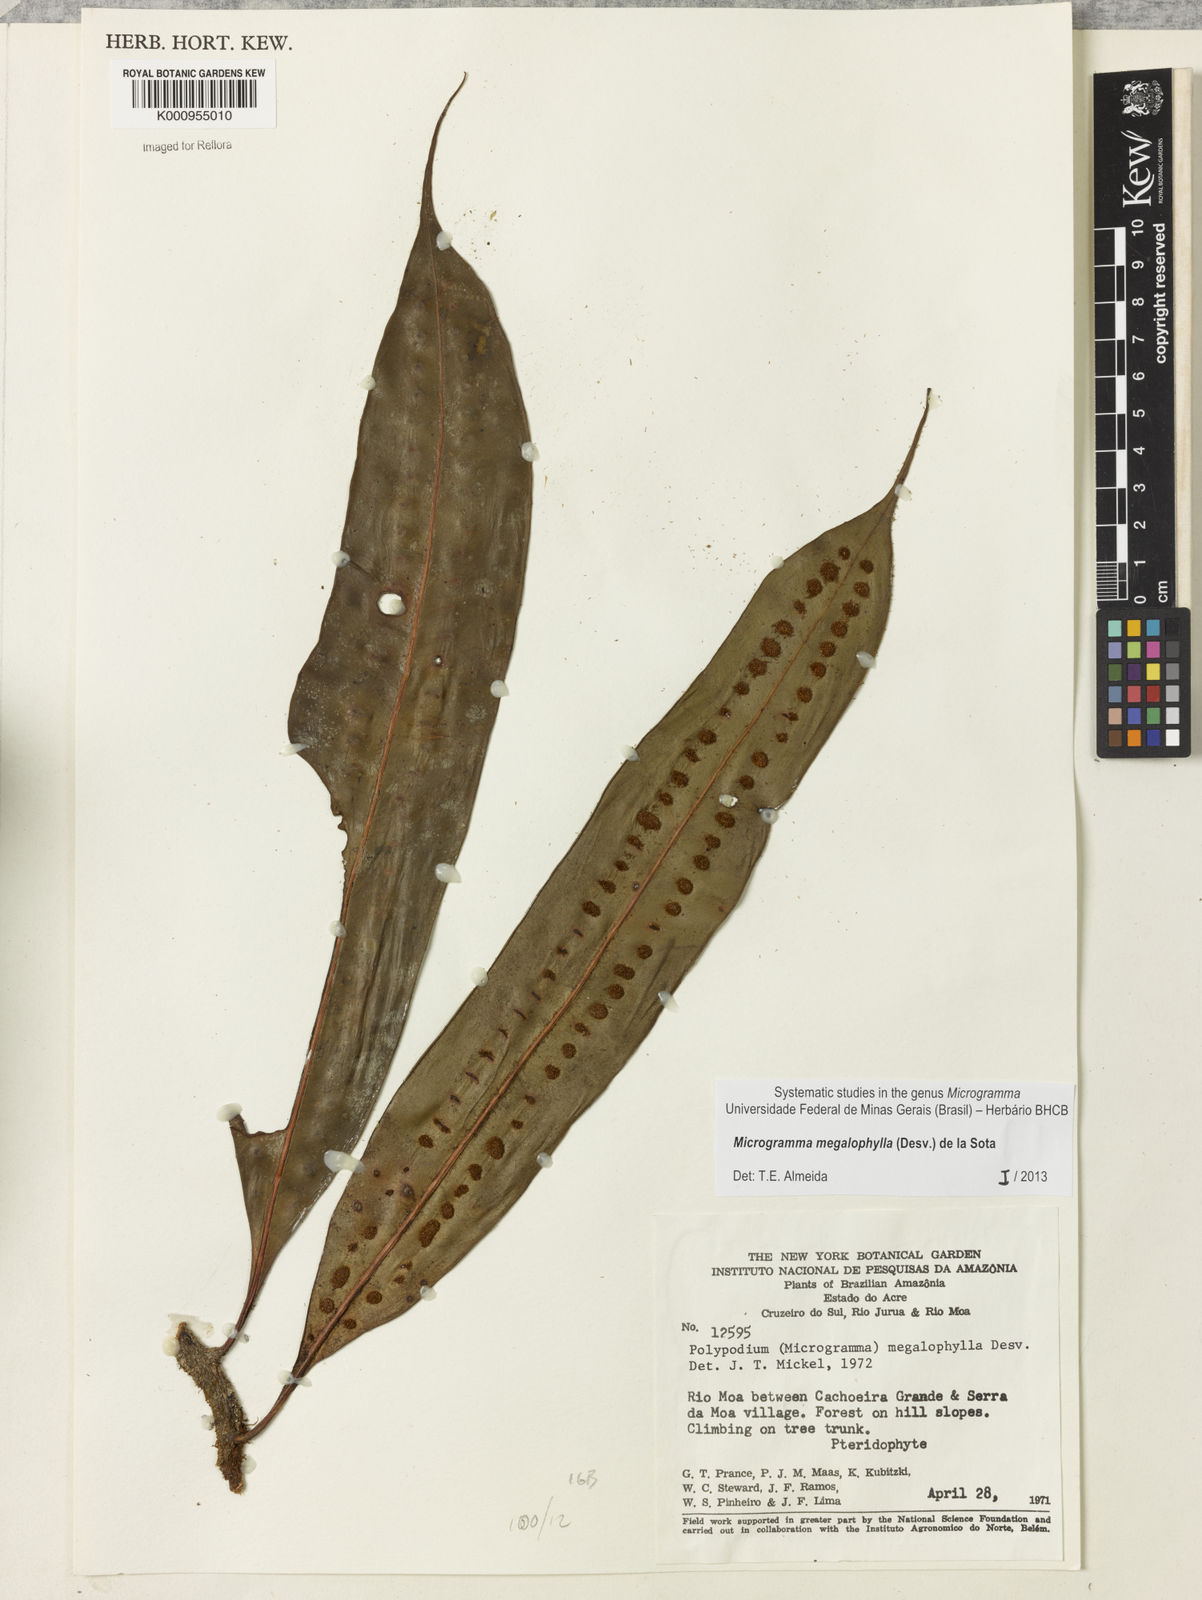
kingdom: Plantae
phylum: Tracheophyta
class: Polypodiopsida
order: Polypodiales
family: Polypodiaceae
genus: Microgramma
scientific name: Microgramma megalophylla
